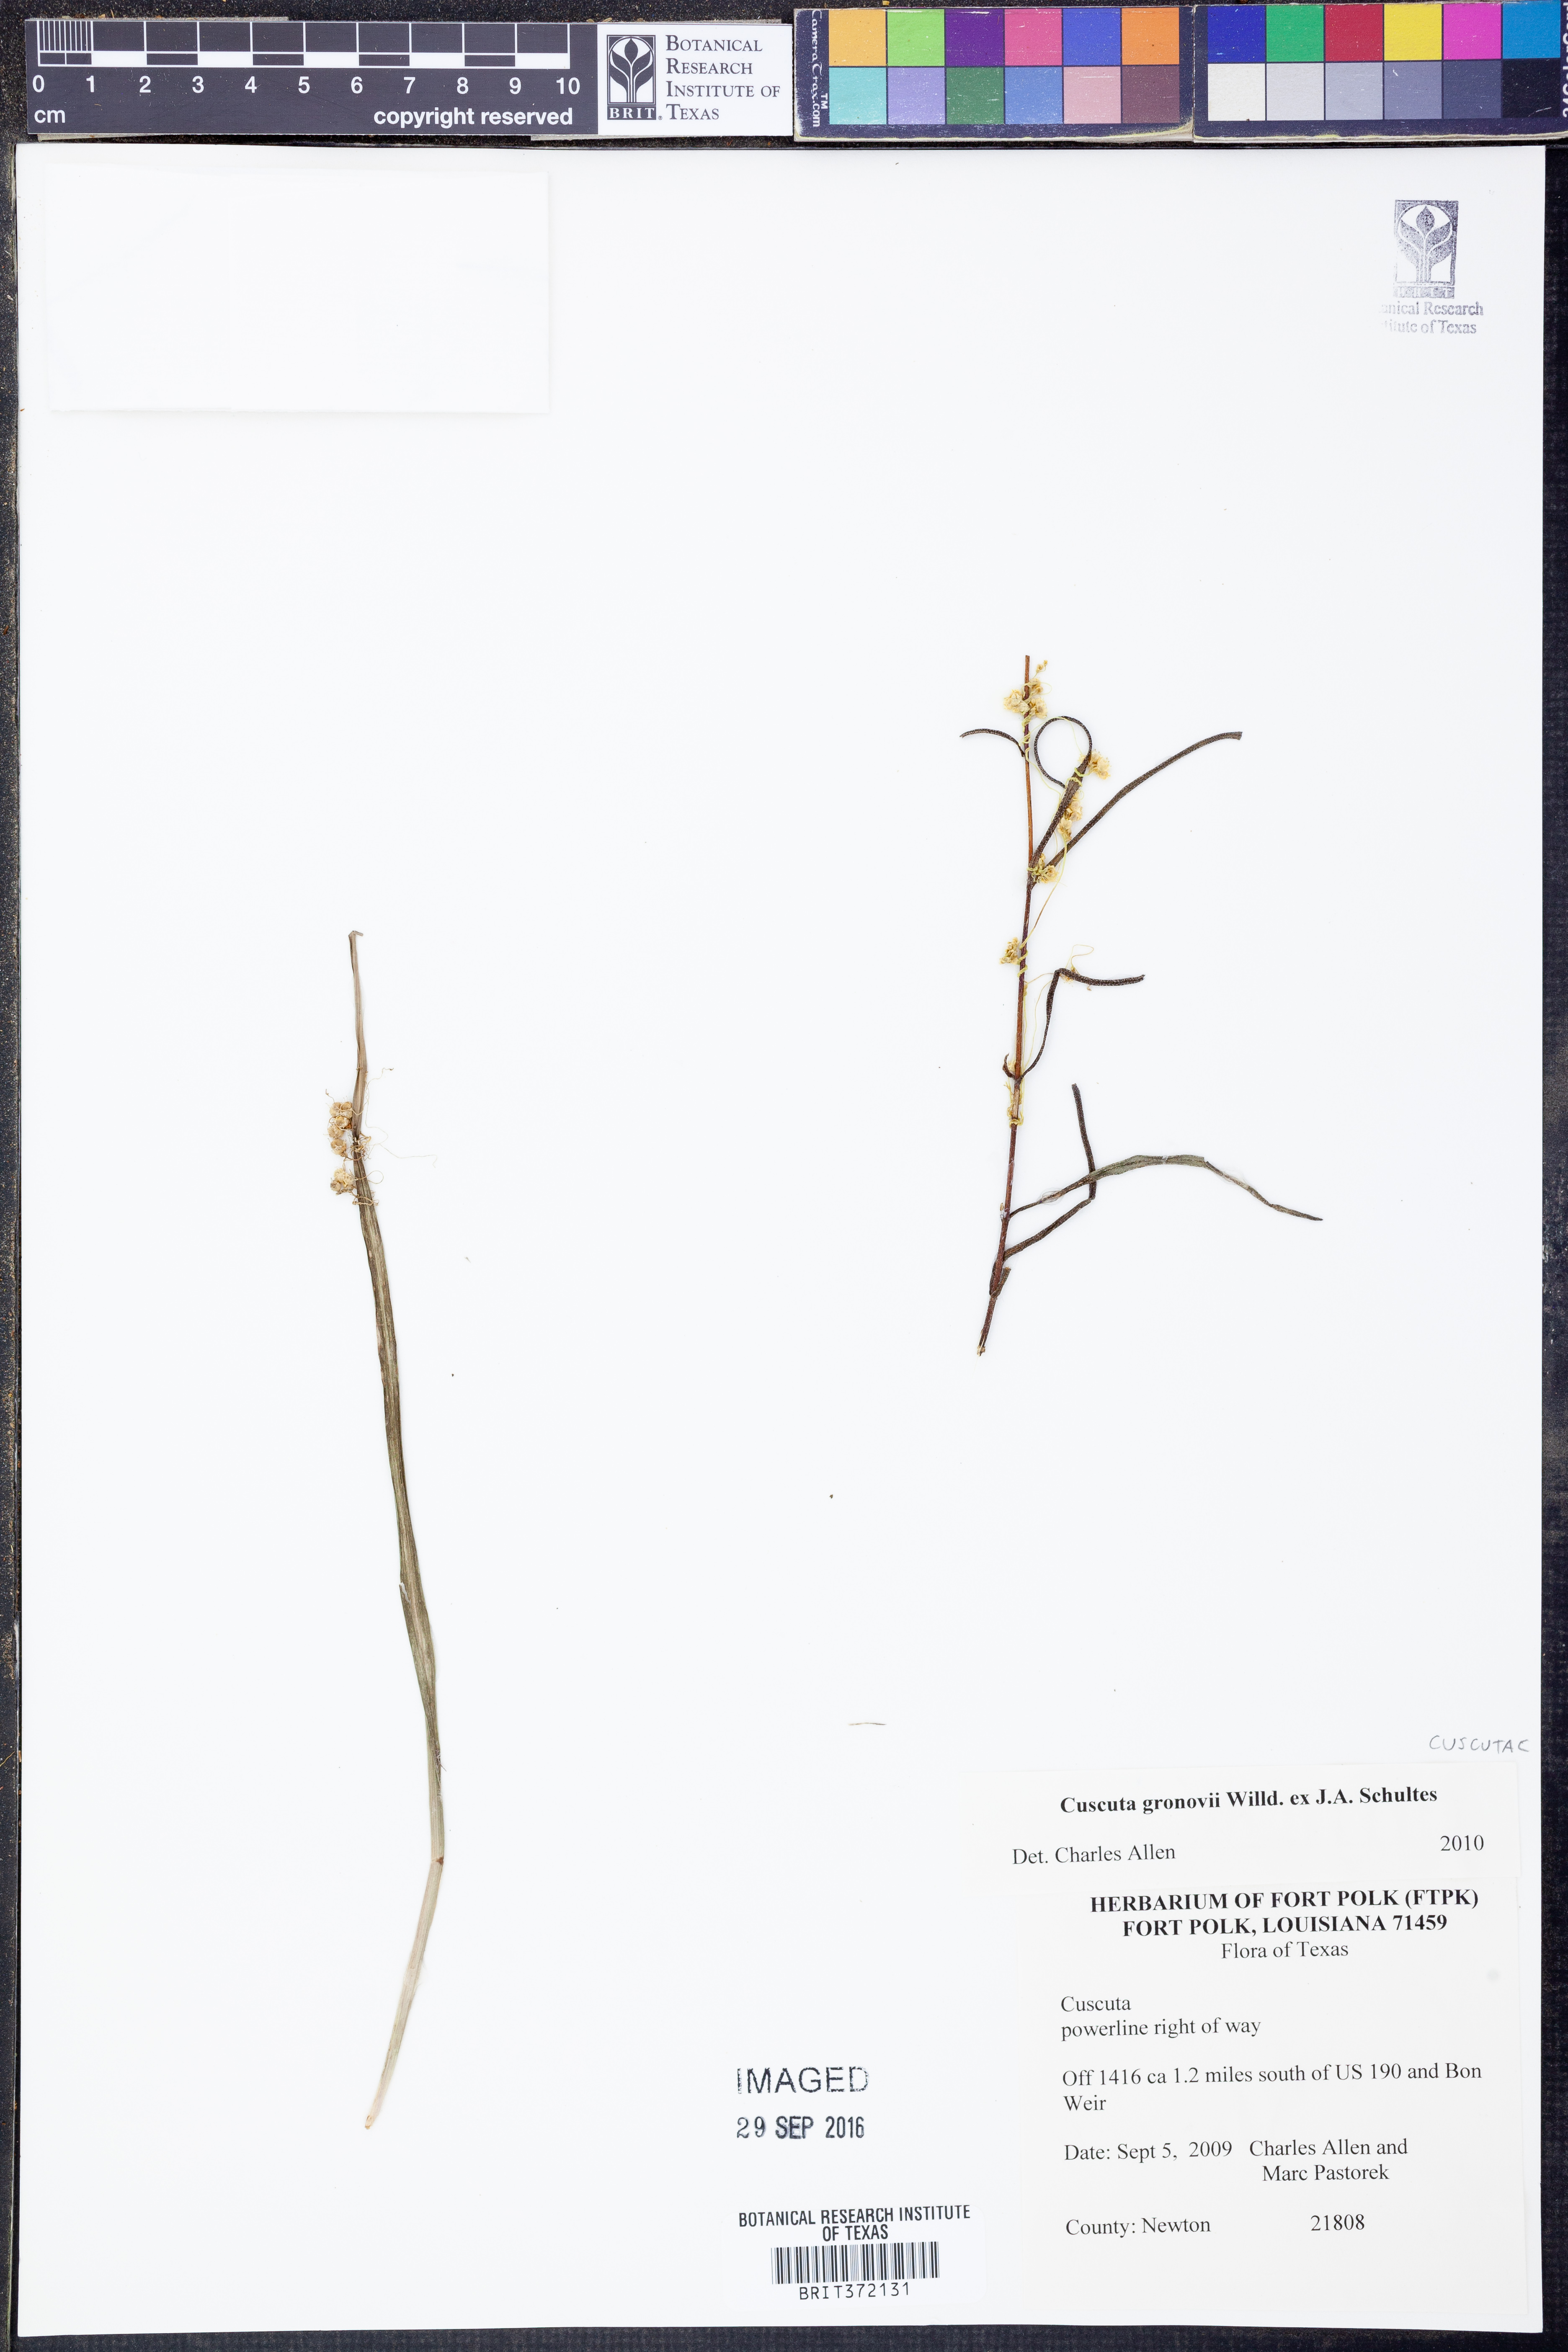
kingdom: Plantae
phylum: Tracheophyta
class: Magnoliopsida
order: Solanales
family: Convolvulaceae
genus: Cuscuta
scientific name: Cuscuta gronovii
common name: Common dodder
